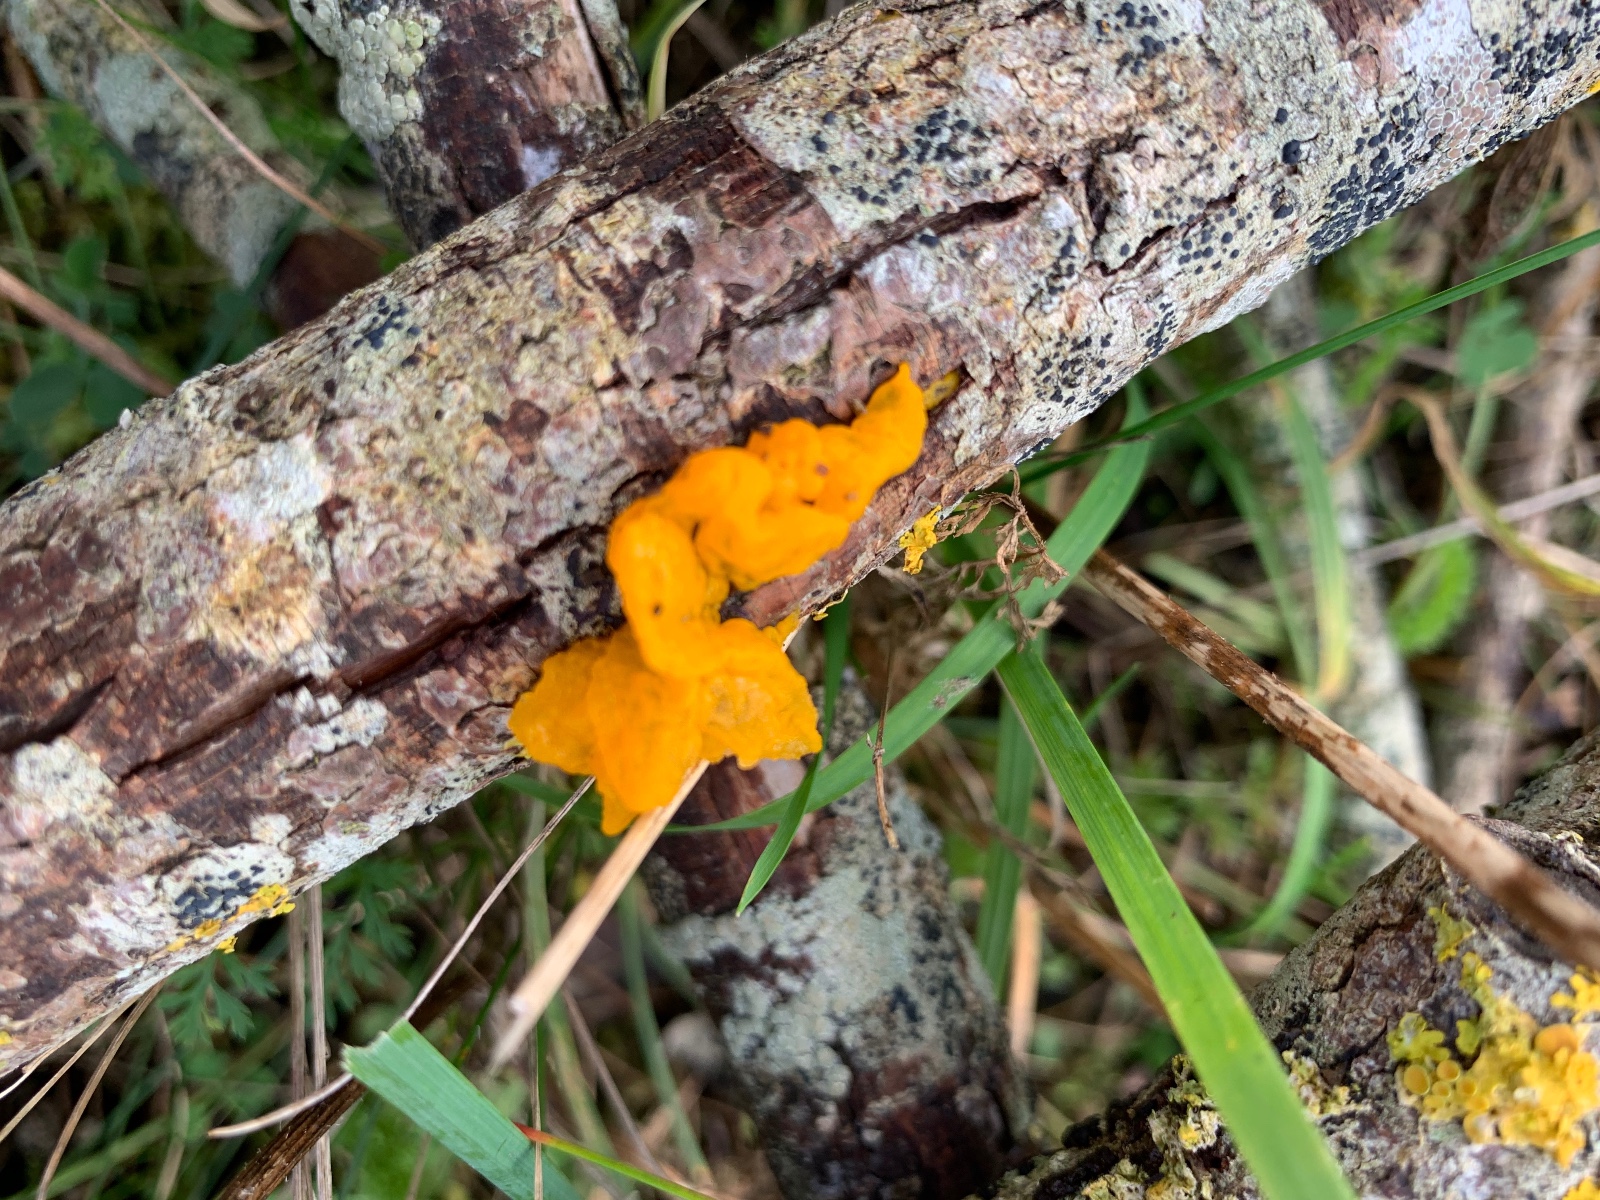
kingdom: Fungi
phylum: Basidiomycota
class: Tremellomycetes
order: Tremellales
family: Tremellaceae
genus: Tremella
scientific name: Tremella mesenterica
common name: gul bævresvamp
